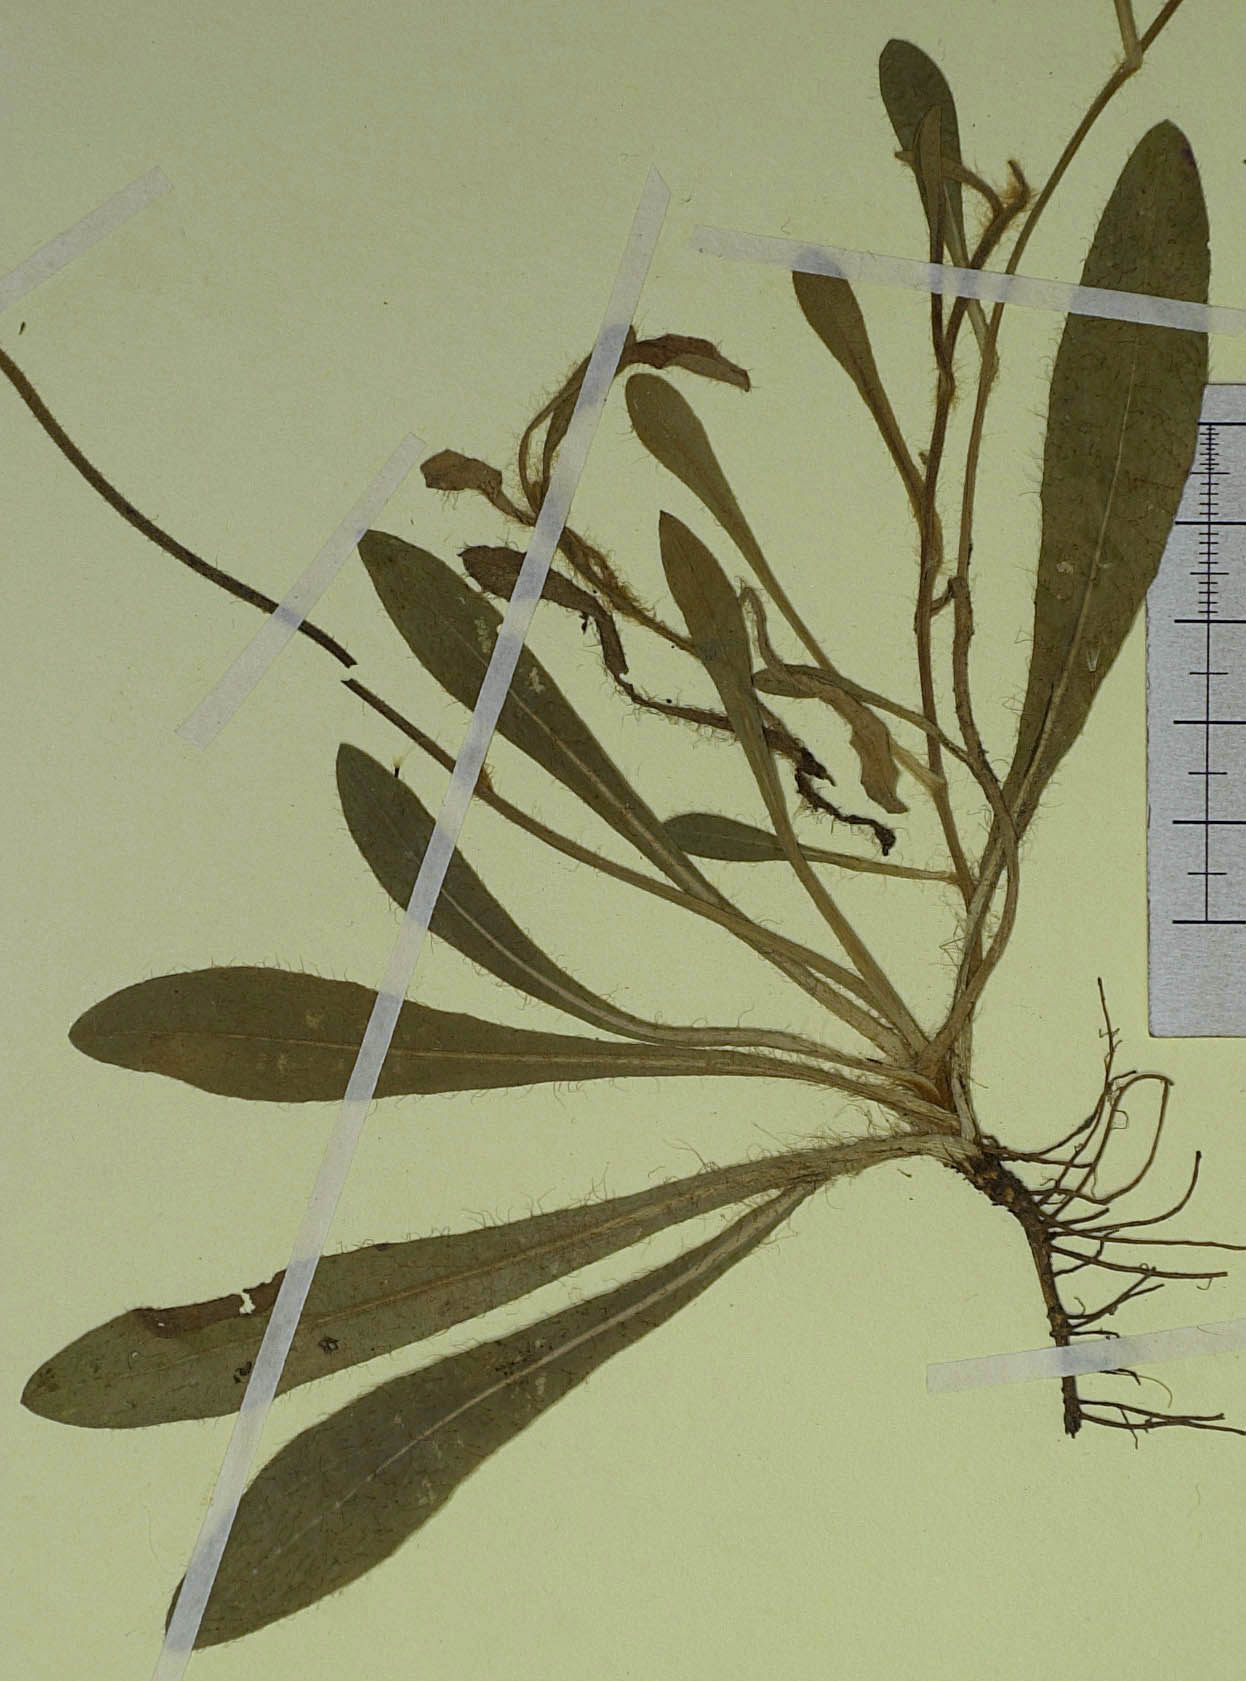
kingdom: Plantae
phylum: Tracheophyta
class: Magnoliopsida
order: Asterales
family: Asteraceae
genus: Pilosella
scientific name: Pilosella officinarum
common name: Mouse-ear hawkweed
